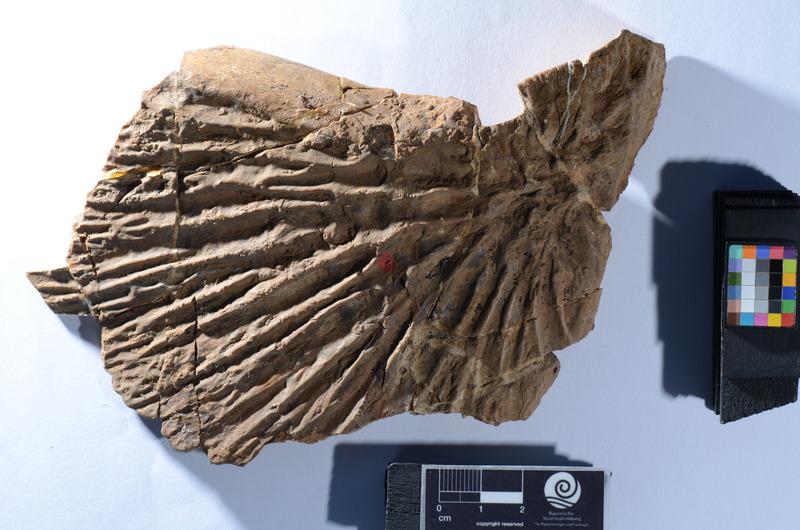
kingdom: Animalia
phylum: Chordata
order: Amiiformes
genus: Stromerichthys
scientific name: Stromerichthys aethiopicus
